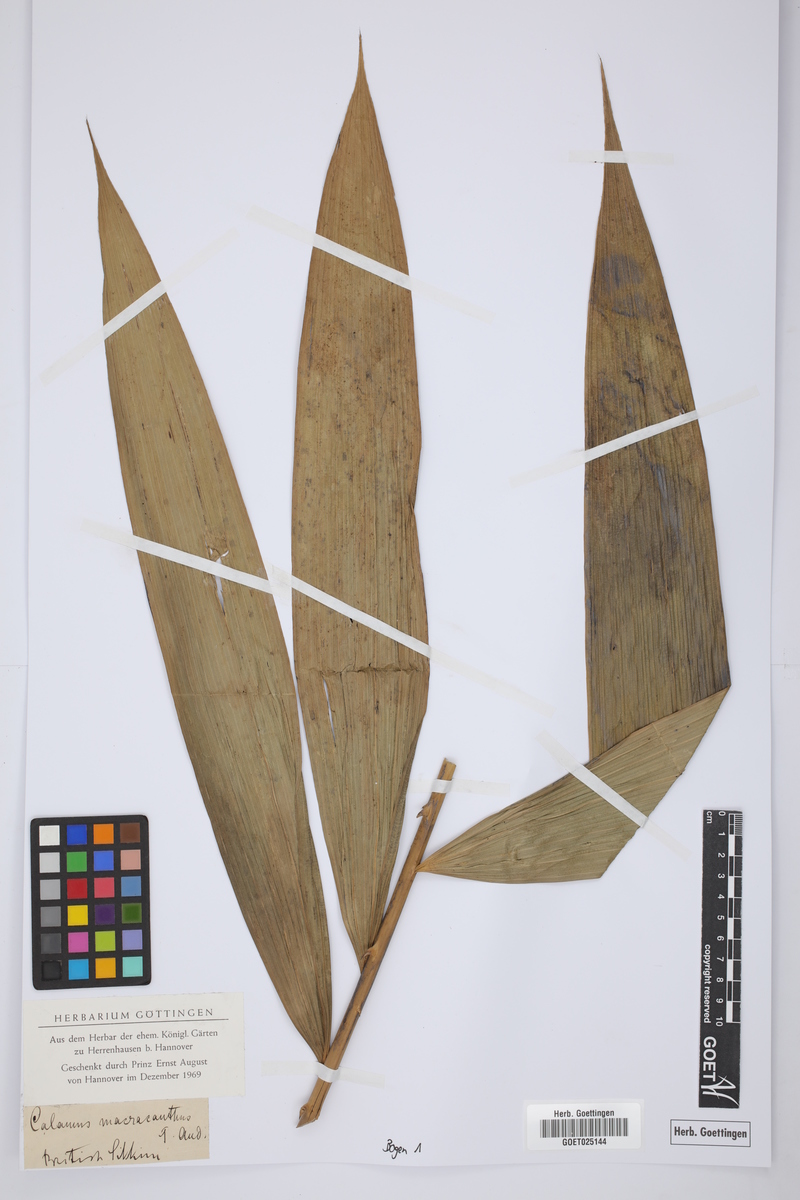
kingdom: Plantae
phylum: Tracheophyta
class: Liliopsida
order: Arecales
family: Arecaceae
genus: Calamus
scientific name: Calamus latifolius
